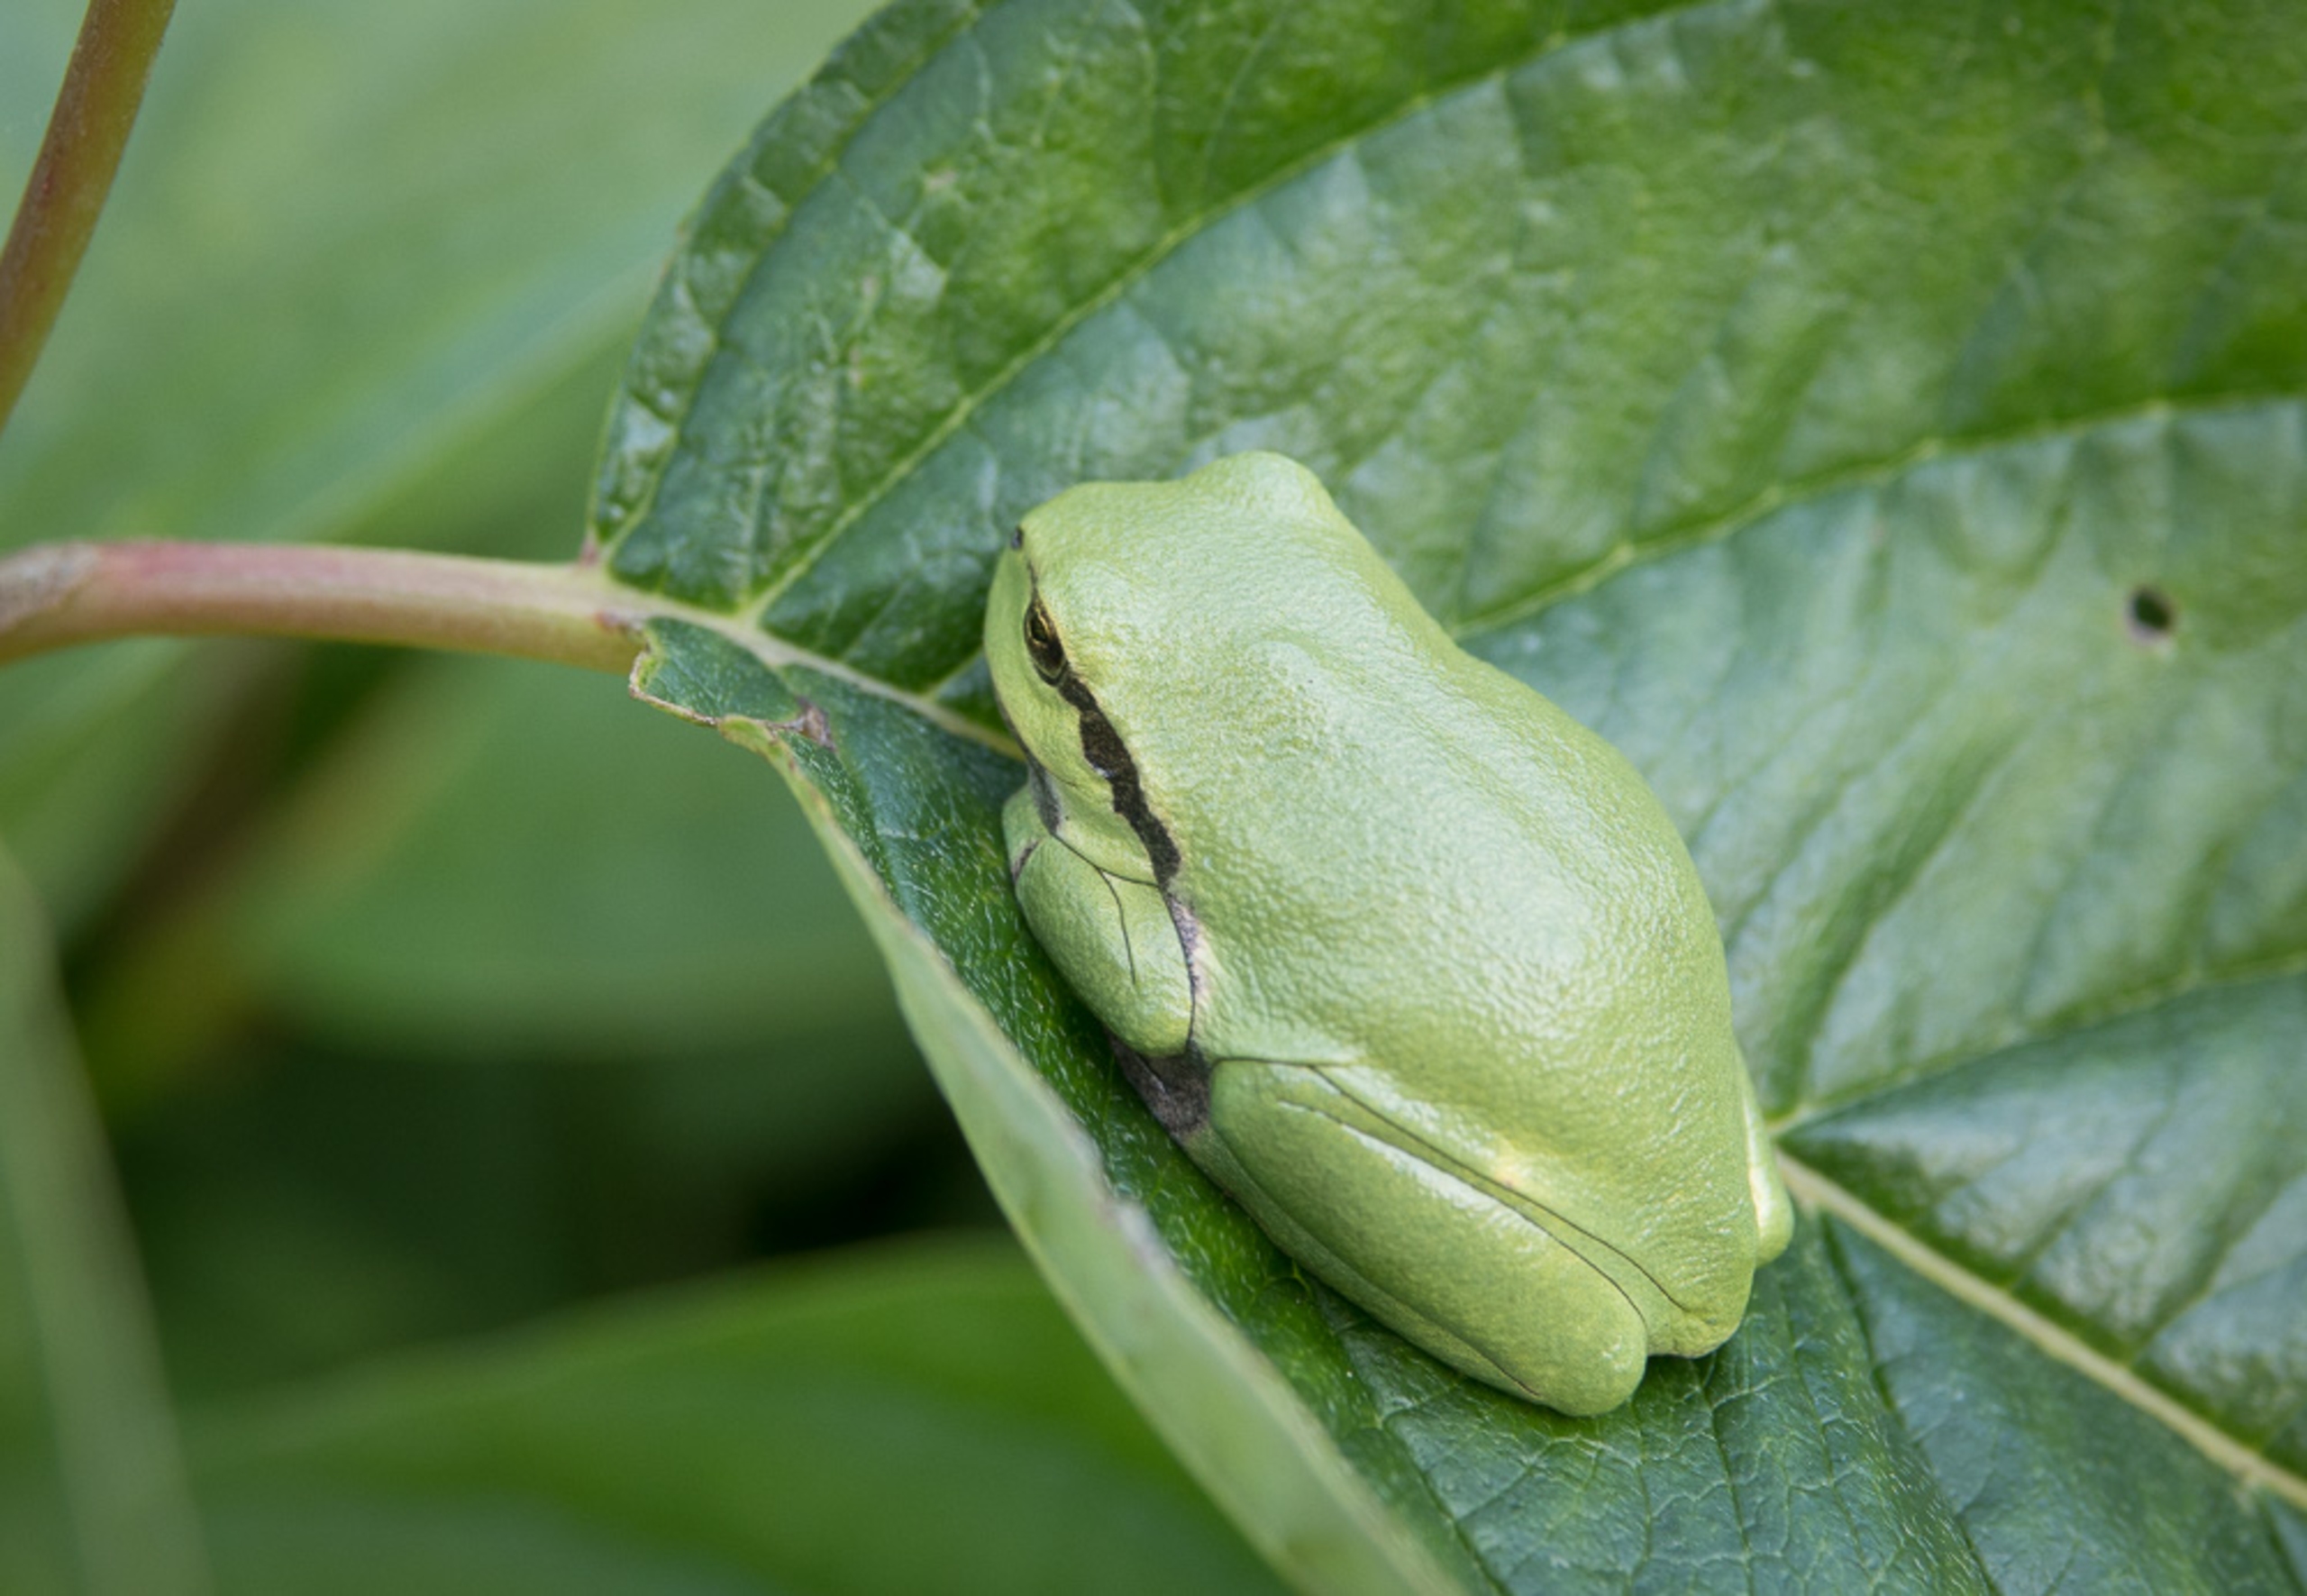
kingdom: Animalia
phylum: Chordata
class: Amphibia
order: Anura
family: Hylidae
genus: Hyla
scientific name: Hyla arborea
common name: Løvfrø
